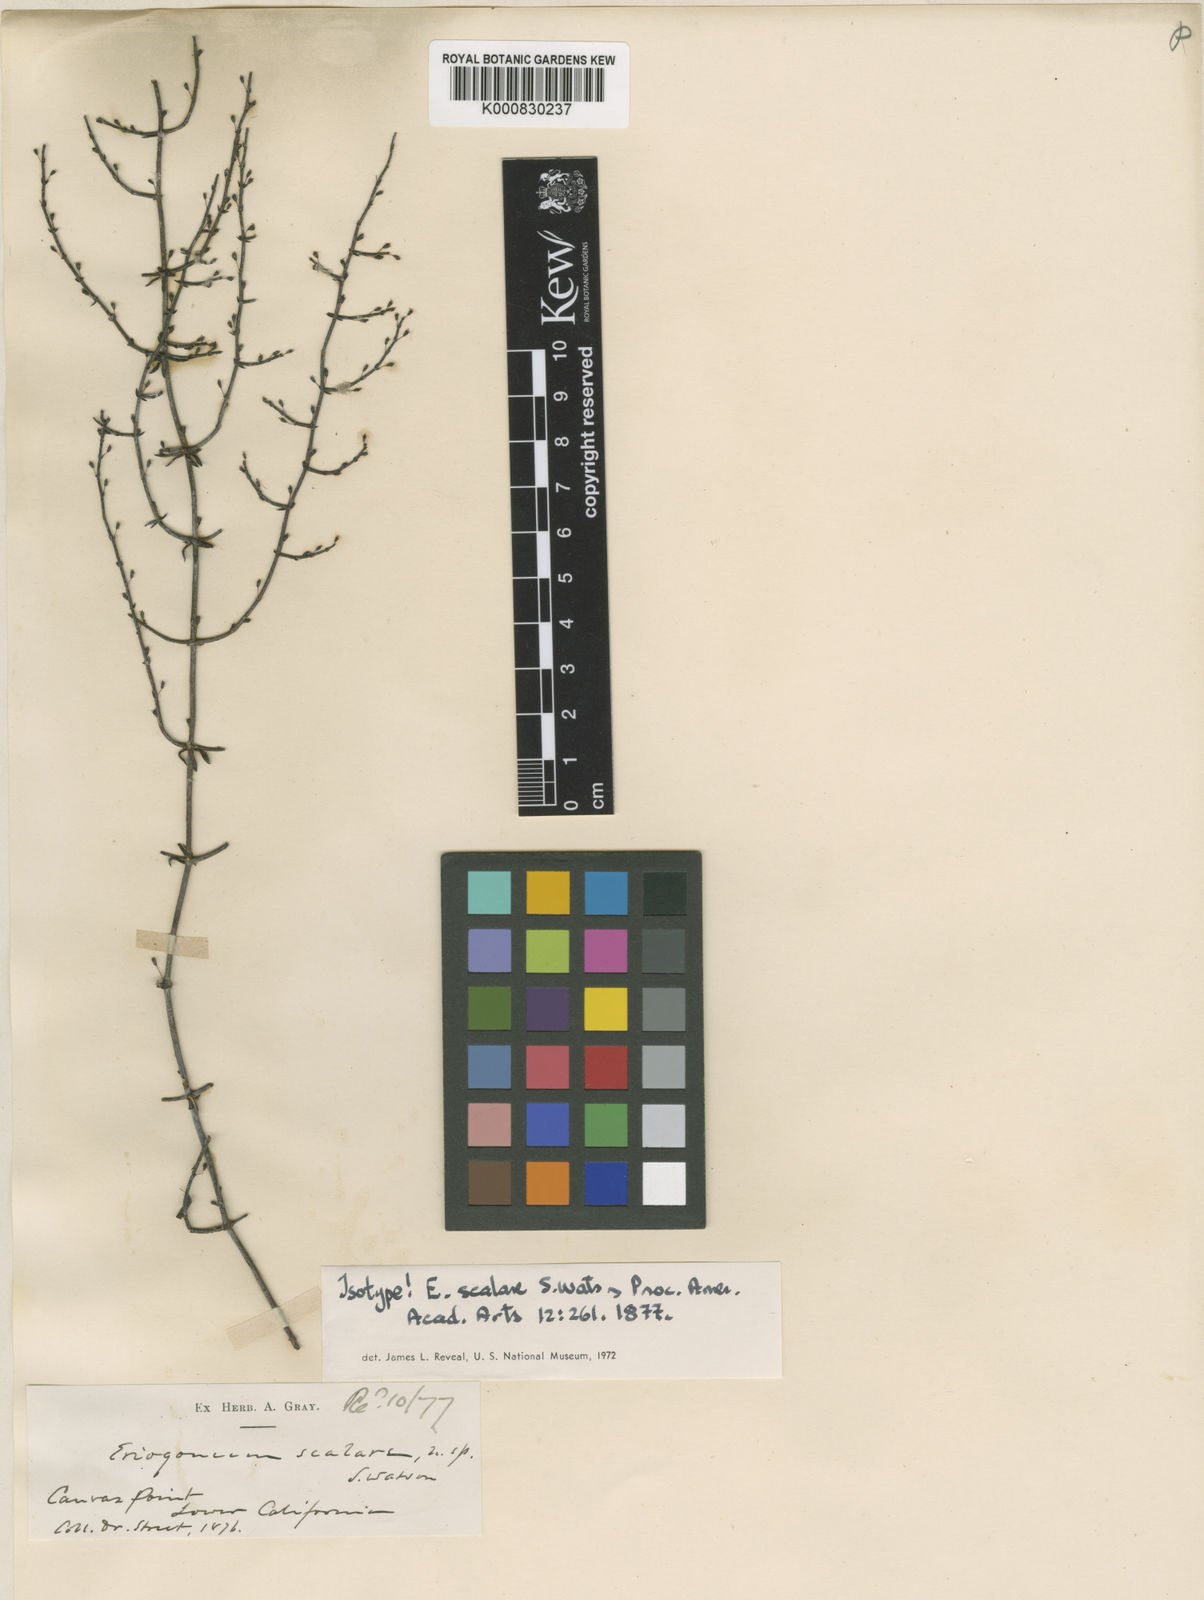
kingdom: Plantae
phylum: Tracheophyta
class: Magnoliopsida
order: Caryophyllales
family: Polygonaceae
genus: Eriogonum
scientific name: Eriogonum scalare
